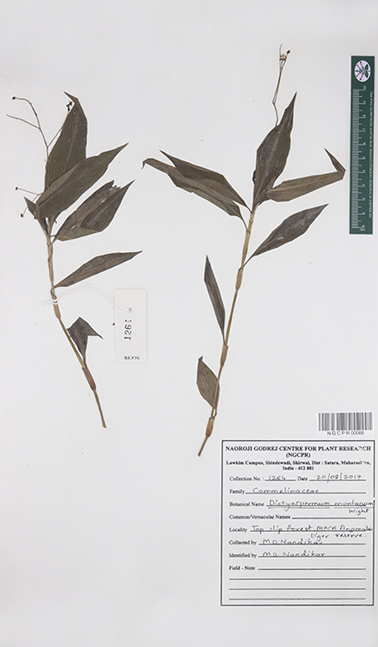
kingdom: Plantae
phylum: Tracheophyta
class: Liliopsida
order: Commelinales
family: Commelinaceae
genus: Dictyospermum
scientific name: Dictyospermum montanum
